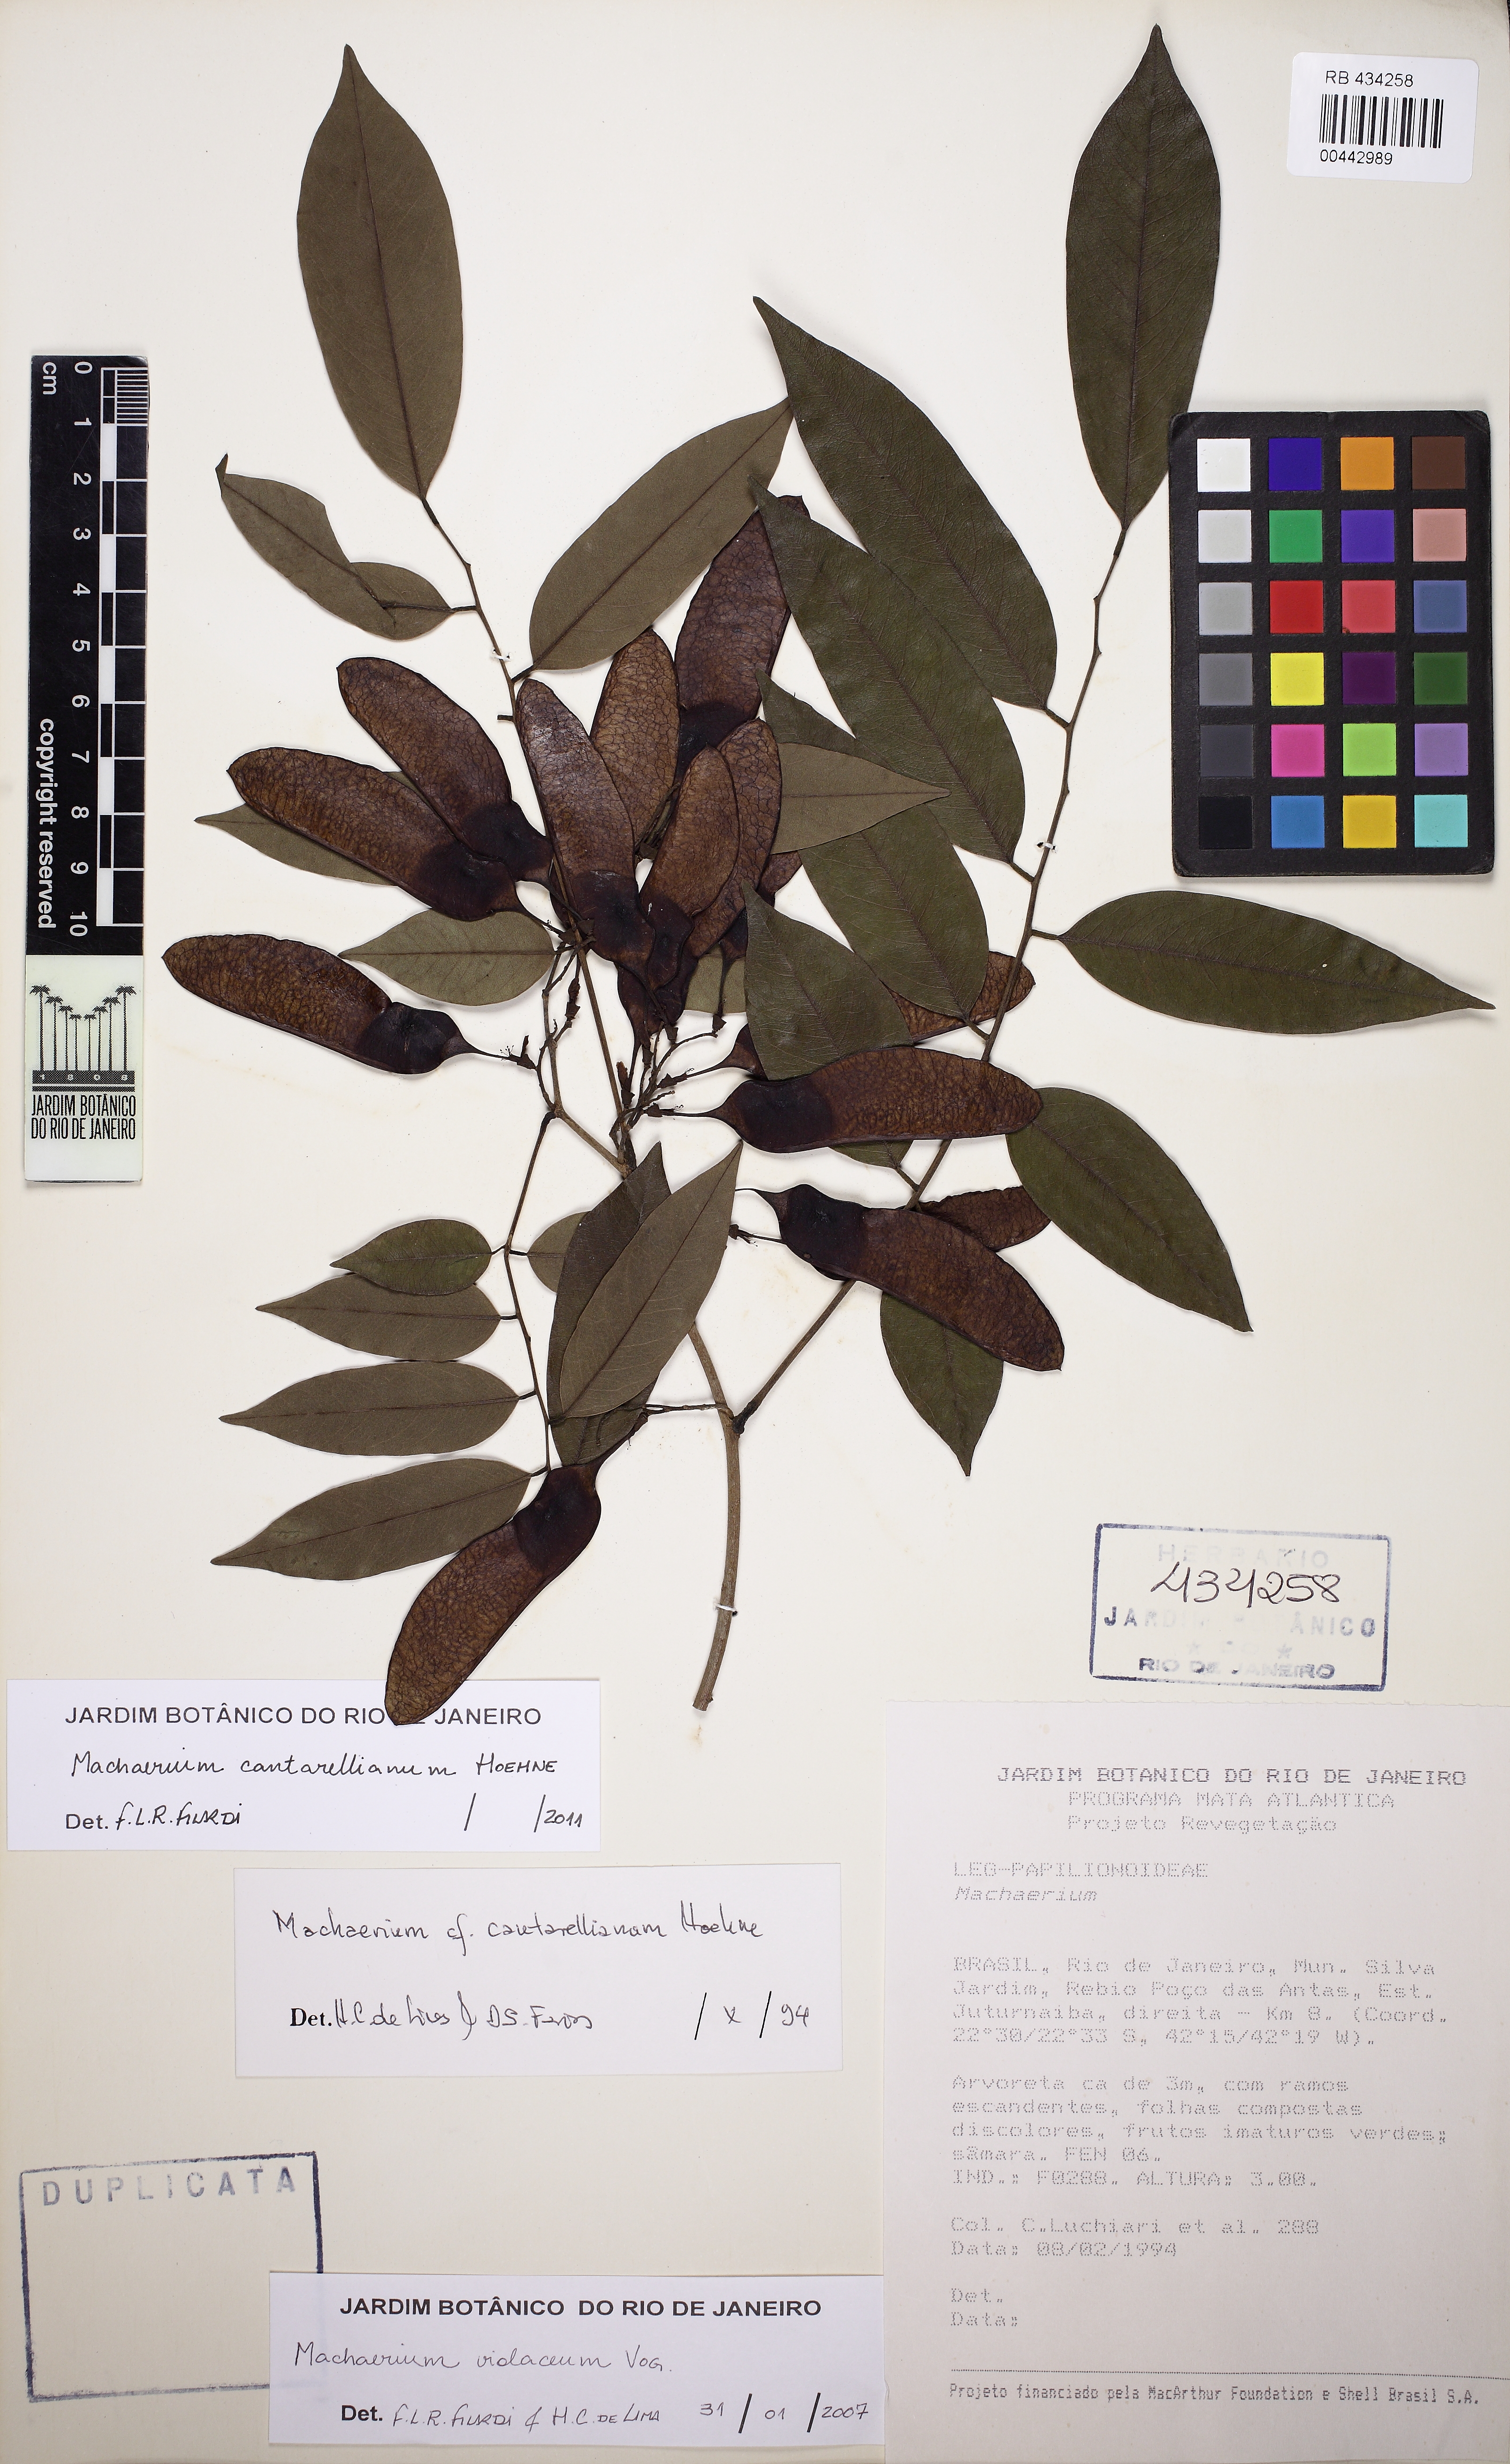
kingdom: Plantae
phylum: Tracheophyta
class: Magnoliopsida
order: Fabales
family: Fabaceae
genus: Machaerium
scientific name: Machaerium cantarellianum
